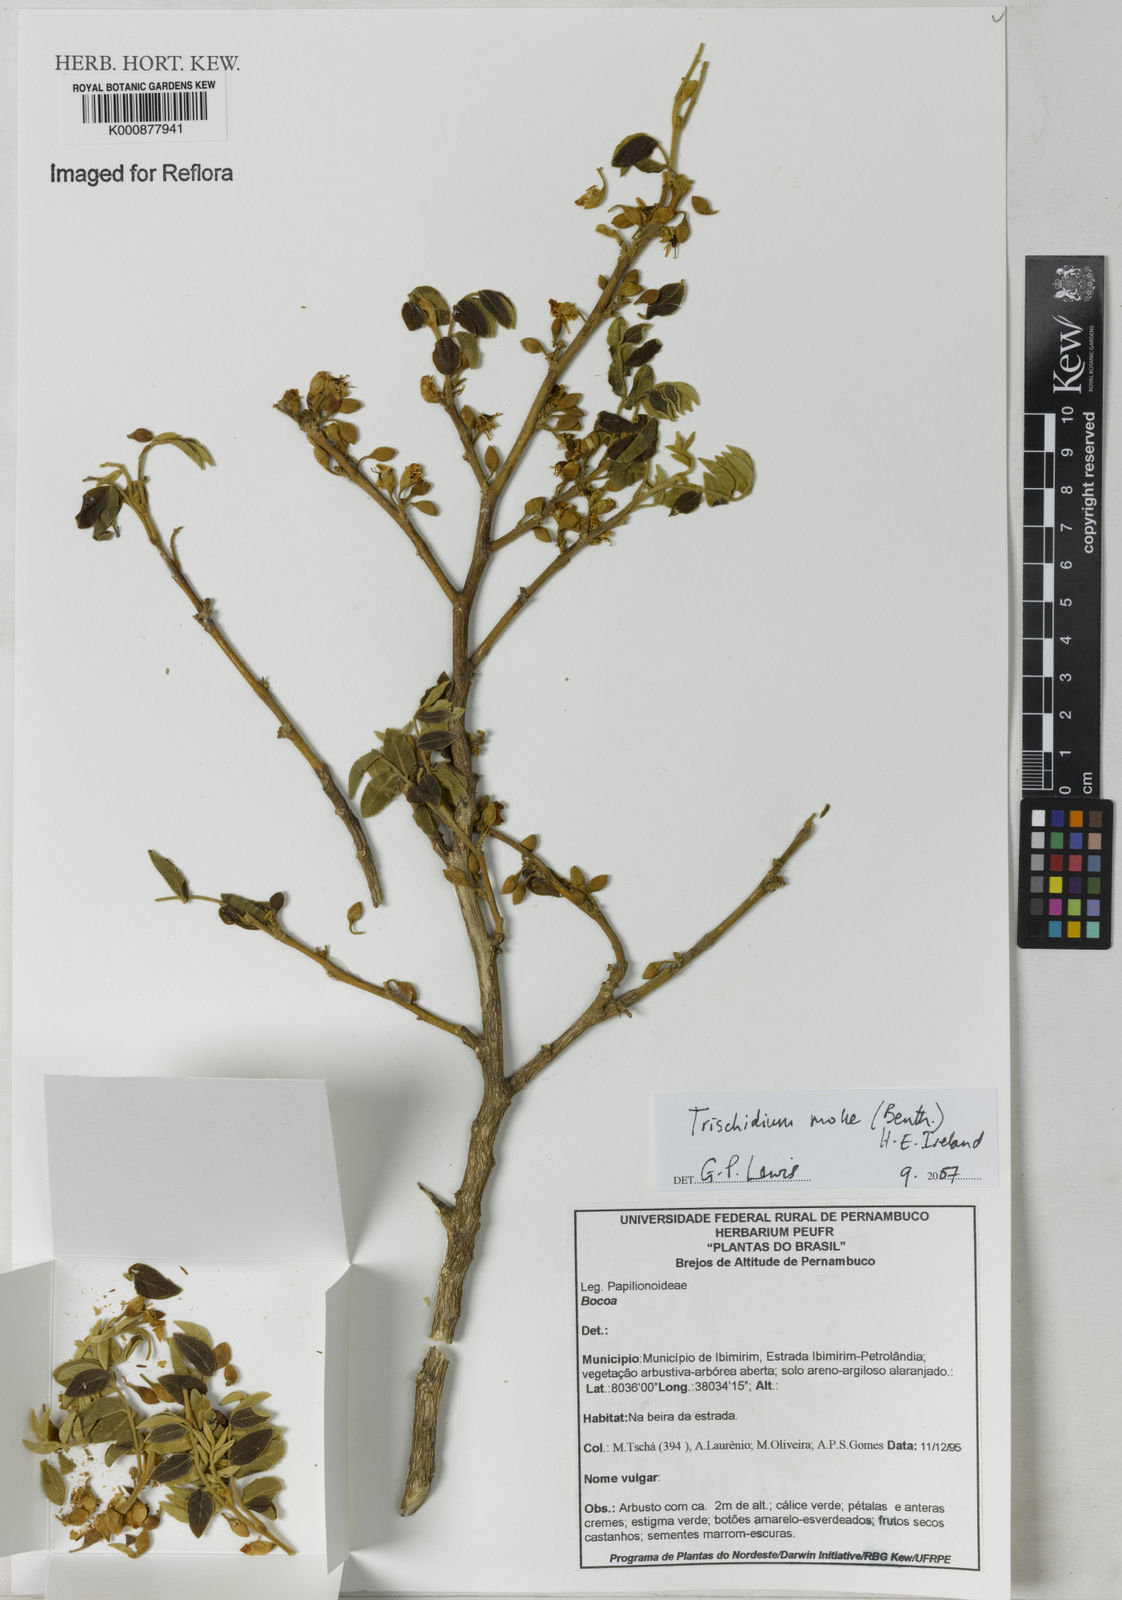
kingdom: Plantae
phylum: Tracheophyta
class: Magnoliopsida
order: Fabales
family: Fabaceae
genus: Trischidium
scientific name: Trischidium molle
